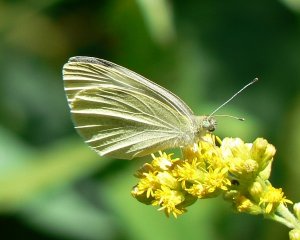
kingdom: Animalia
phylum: Arthropoda
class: Insecta
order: Lepidoptera
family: Pieridae
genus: Pieris
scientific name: Pieris rapae
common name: Cabbage White
